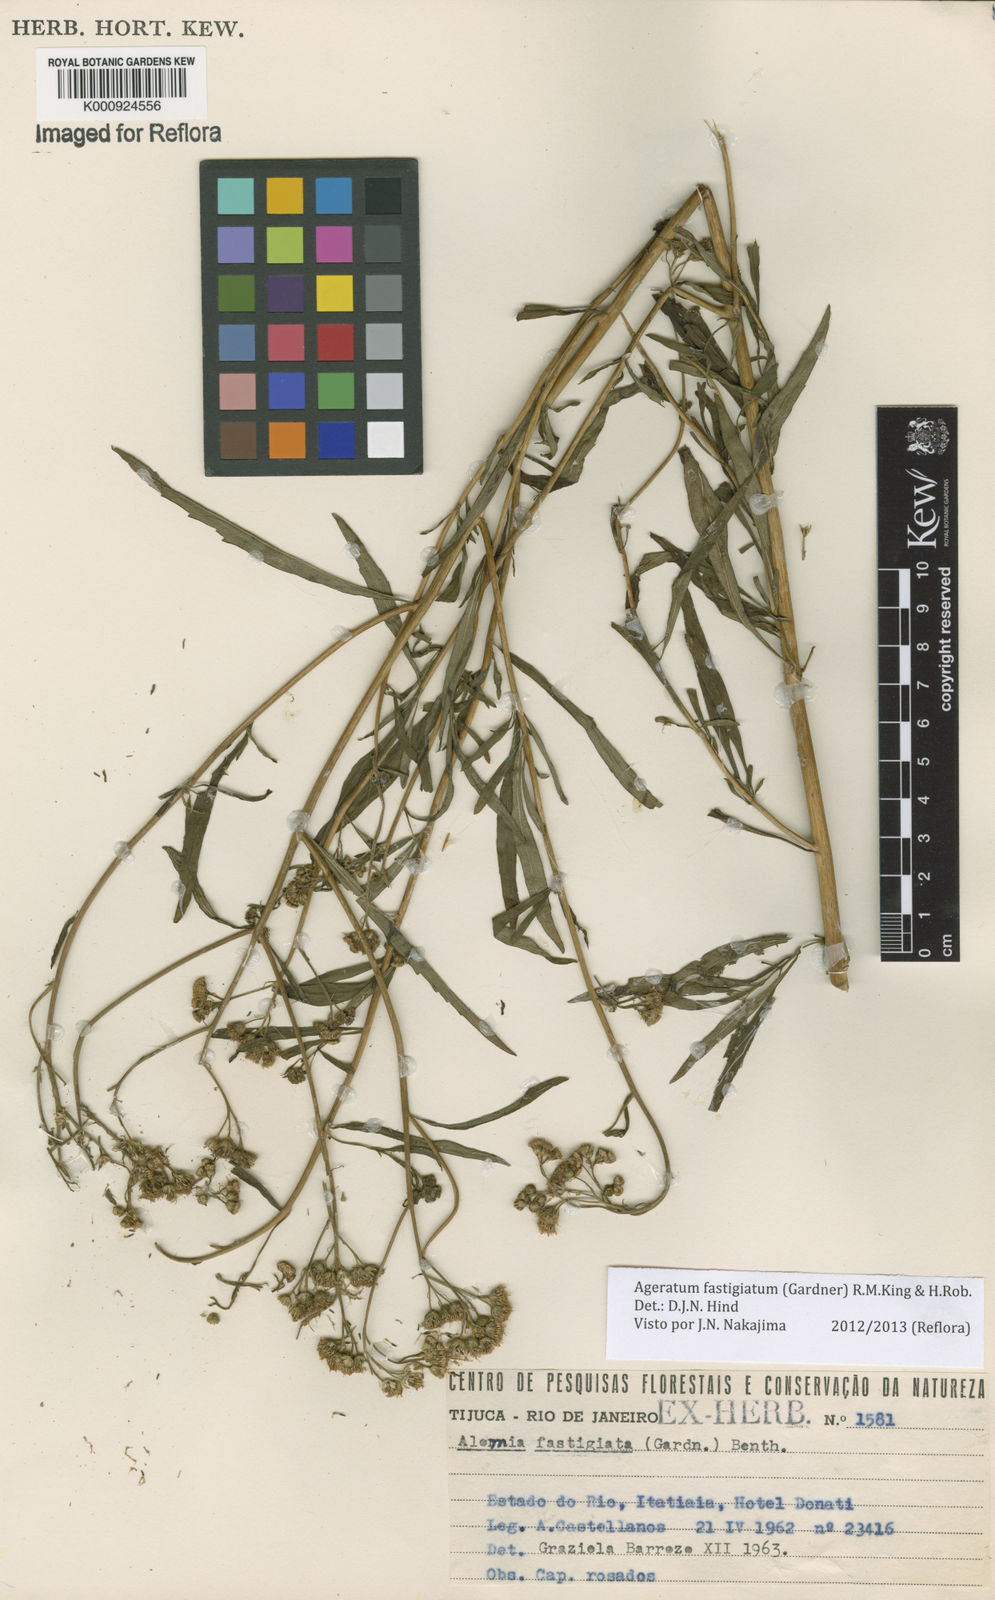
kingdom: Plantae
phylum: Tracheophyta
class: Magnoliopsida
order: Asterales
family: Asteraceae
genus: Ageratum
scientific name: Ageratum fastigiatum
